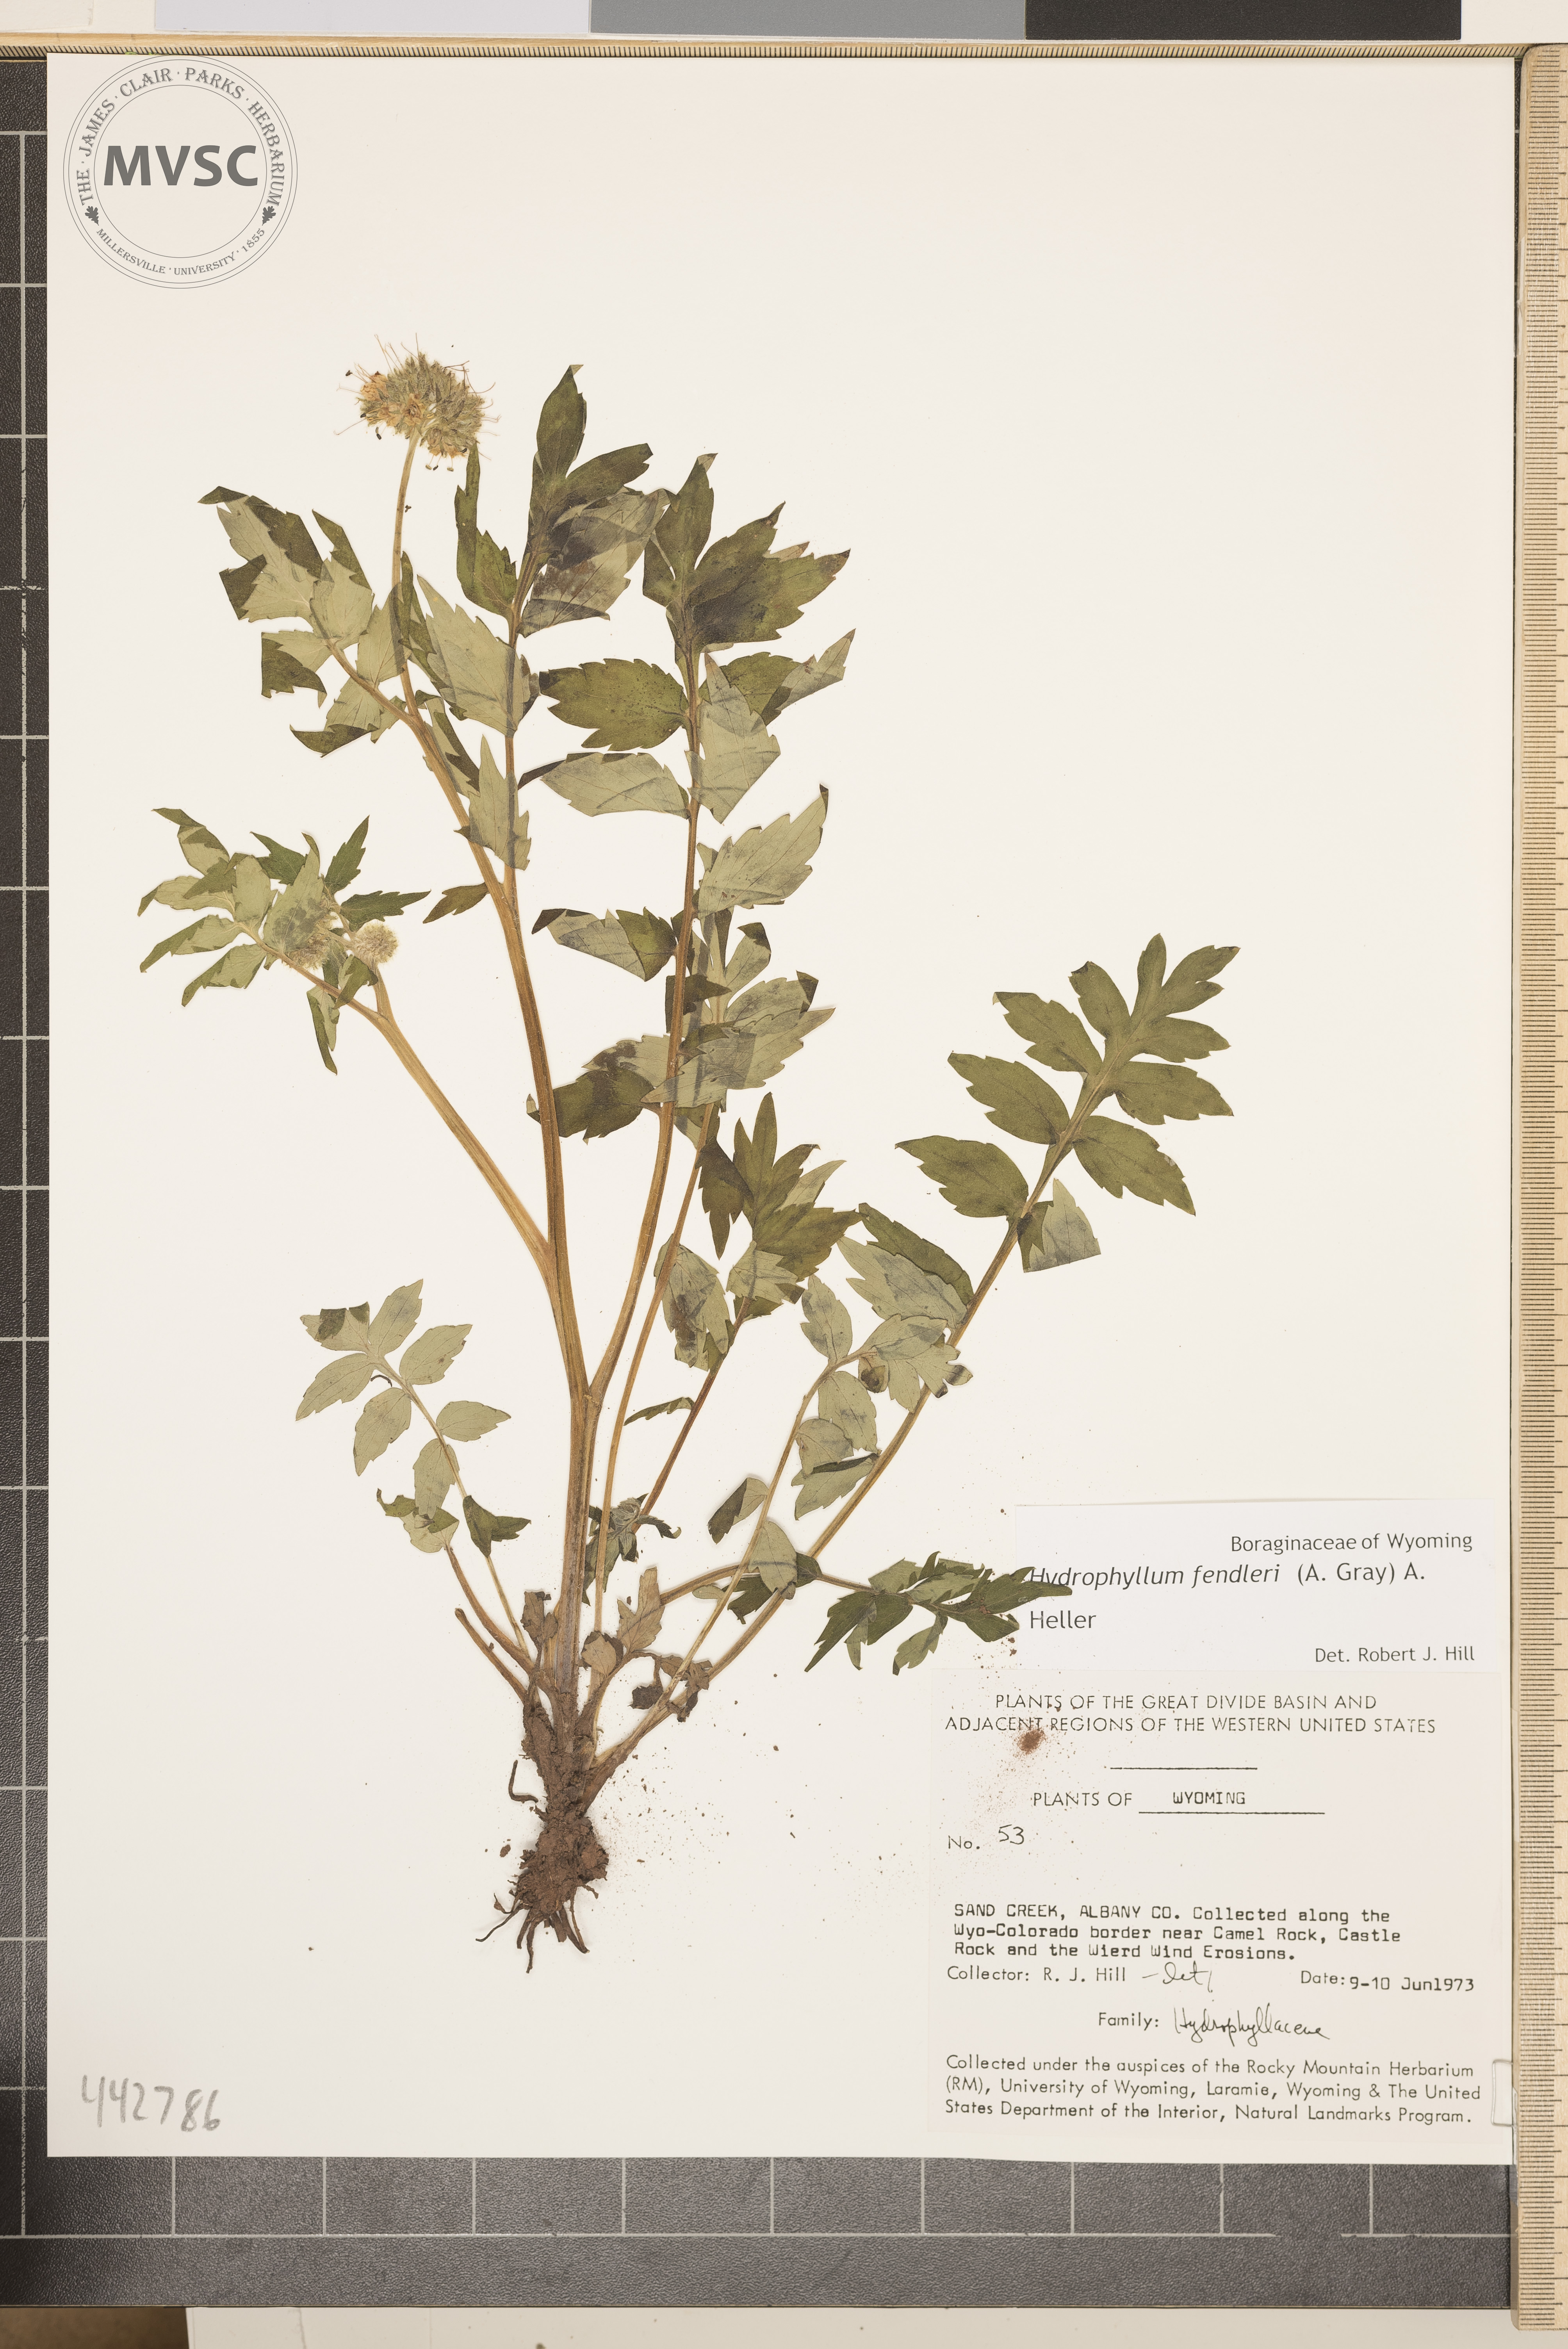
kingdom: Plantae
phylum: Tracheophyta
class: Magnoliopsida
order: Boraginales
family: Hydrophyllaceae
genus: Hydrophyllum
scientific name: Hydrophyllum fendleri
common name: Fendler's waterleaf
